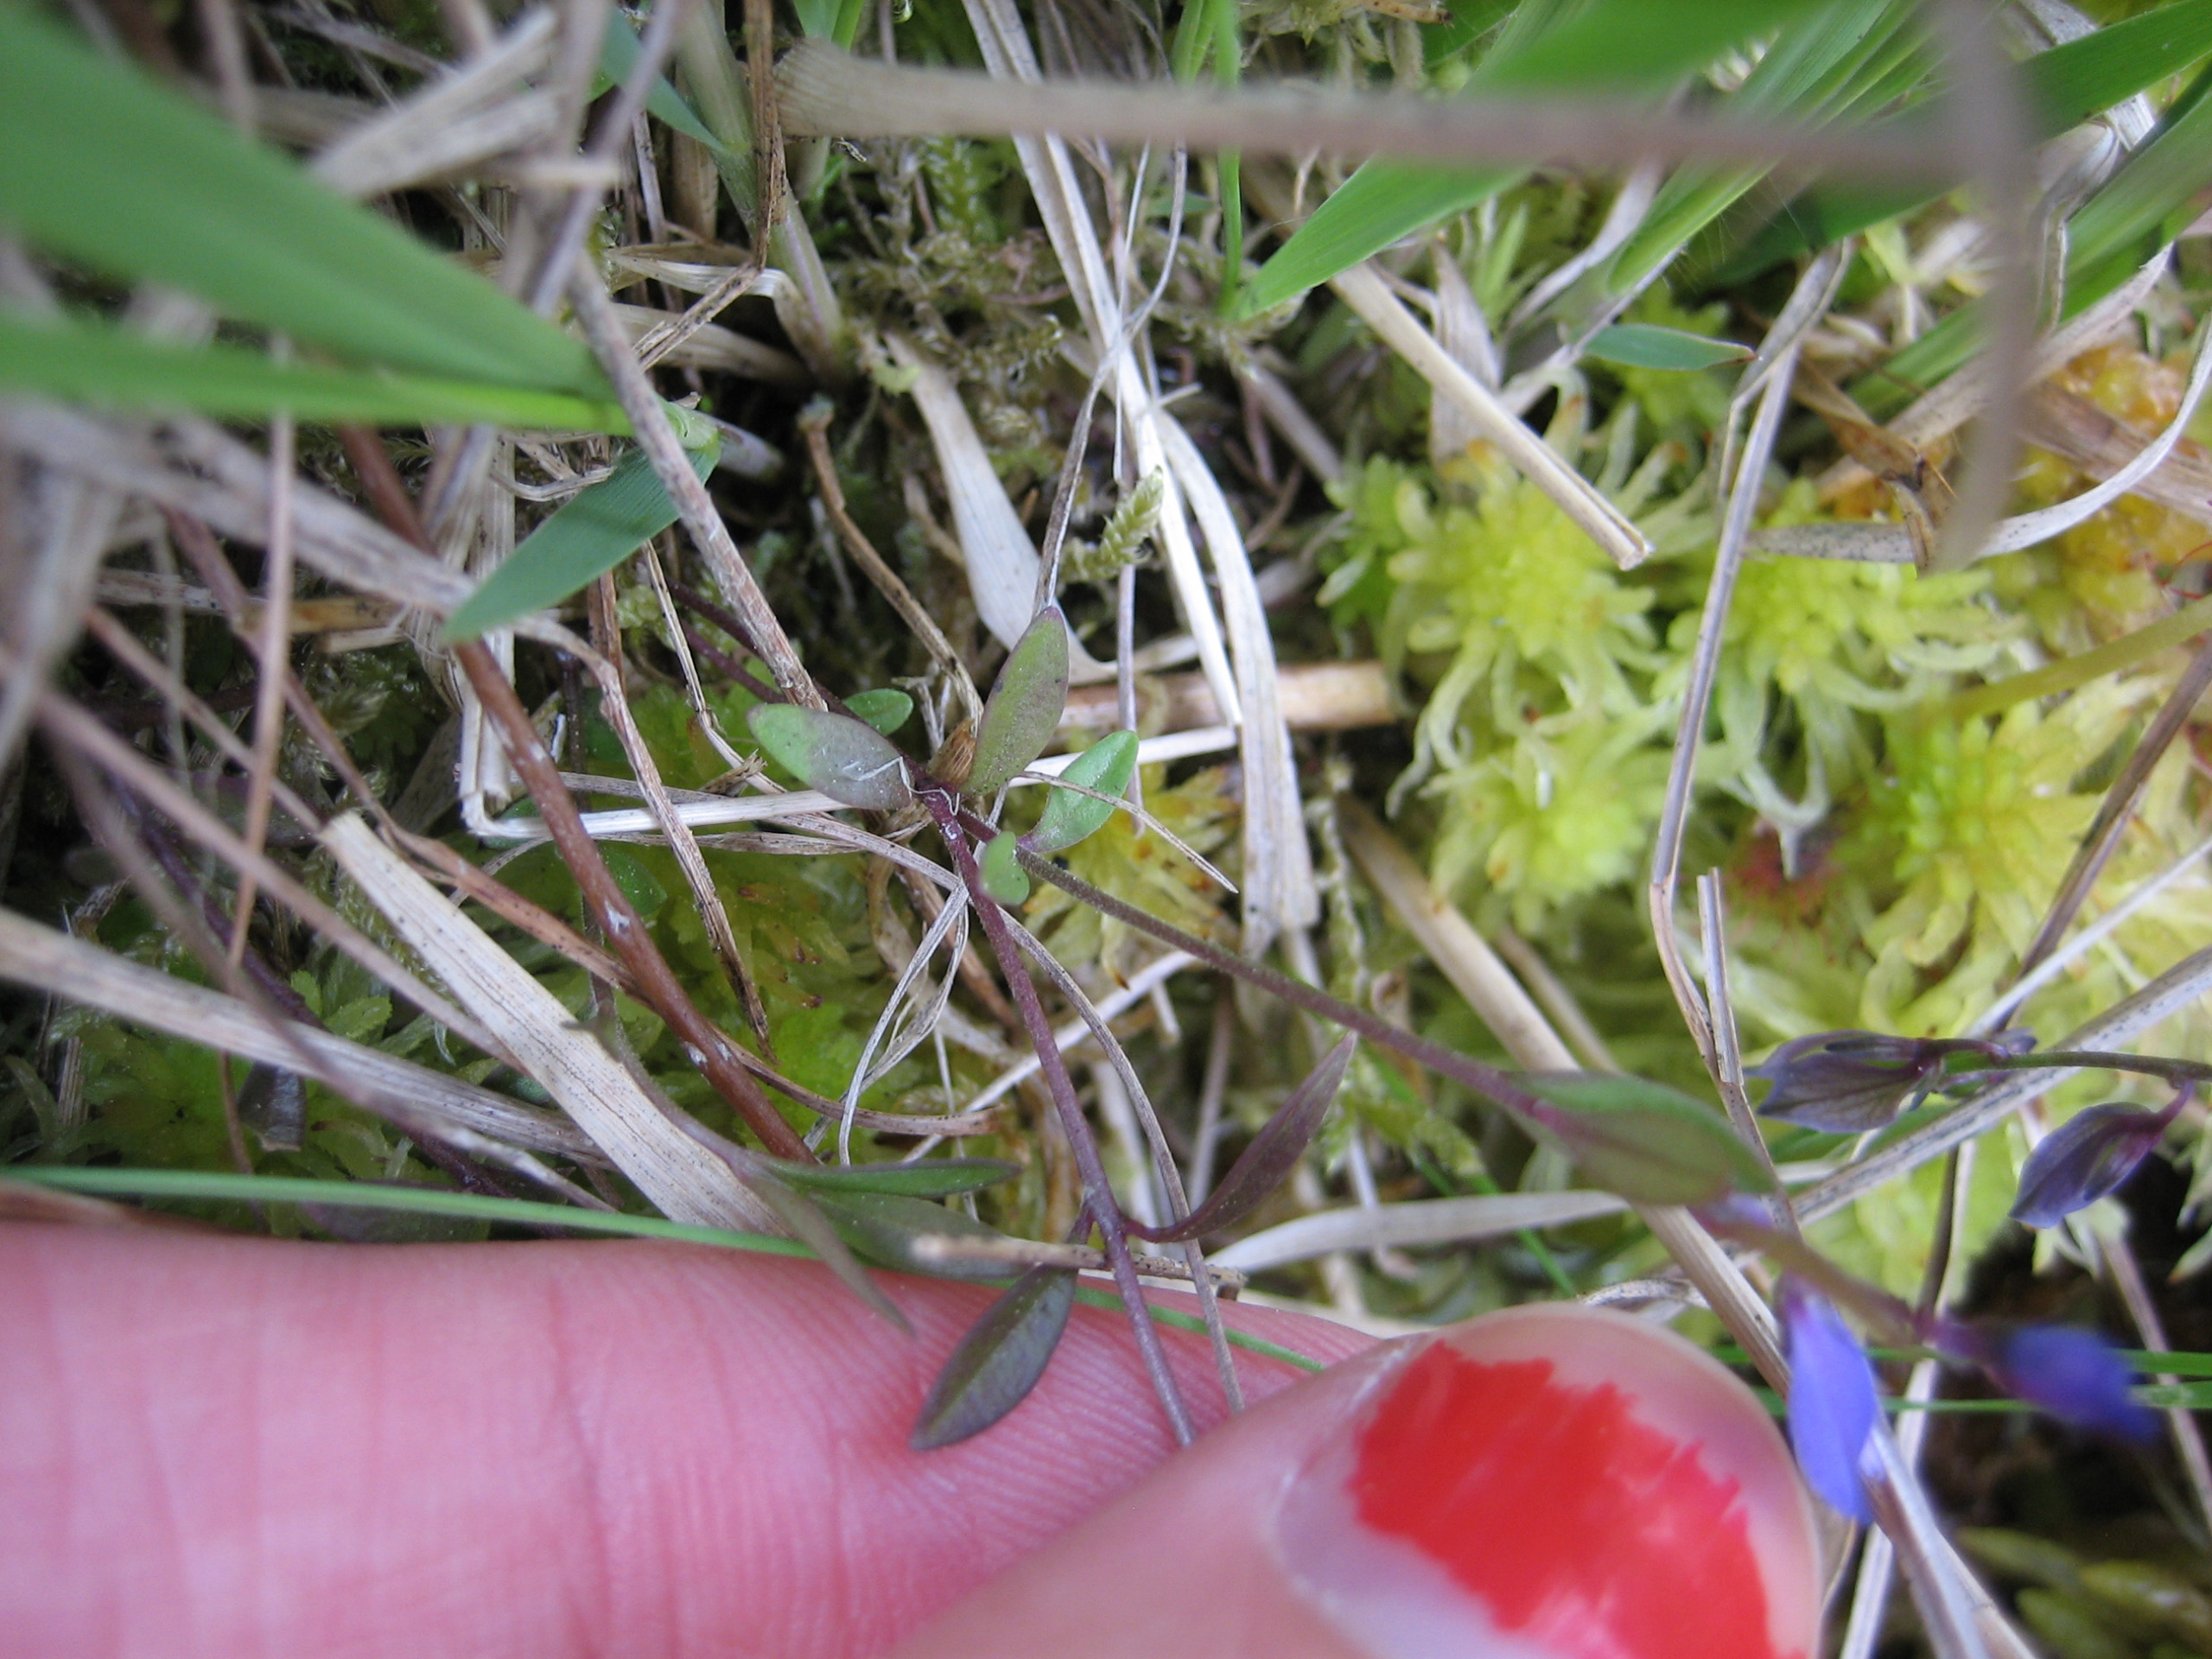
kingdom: Plantae
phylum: Tracheophyta
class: Magnoliopsida
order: Fabales
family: Polygalaceae
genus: Polygala
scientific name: Polygala serpyllifolia
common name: Spæd mælkeurt
